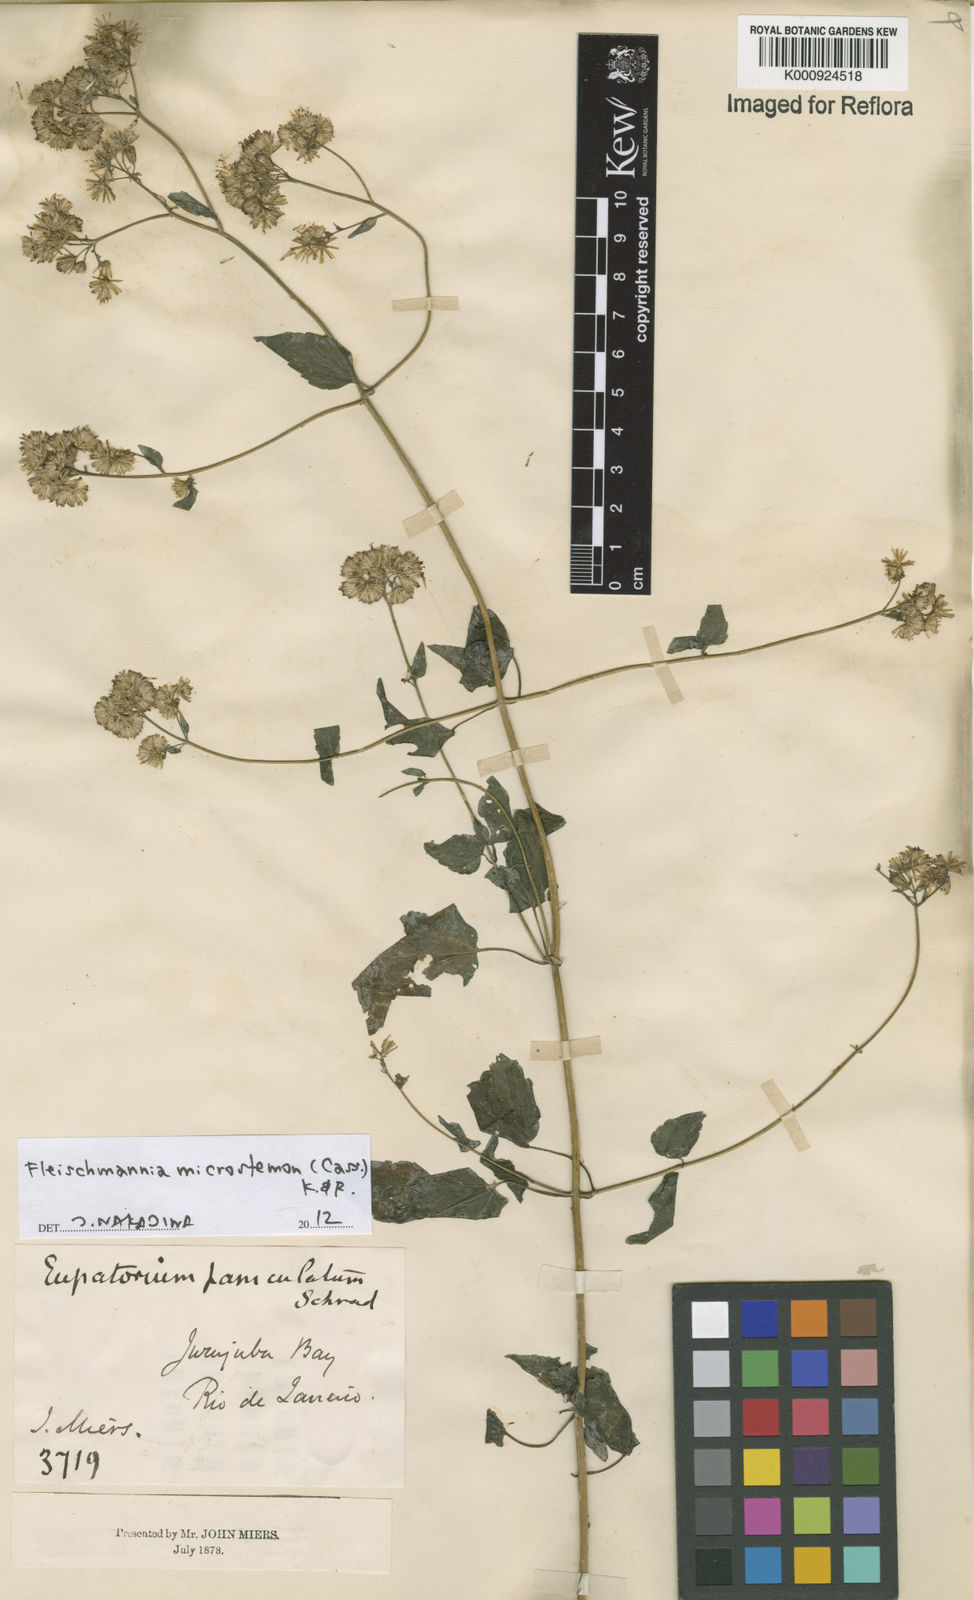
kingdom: Plantae
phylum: Tracheophyta
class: Magnoliopsida
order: Asterales
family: Asteraceae
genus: Fleischmannia
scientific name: Fleischmannia microstemon
